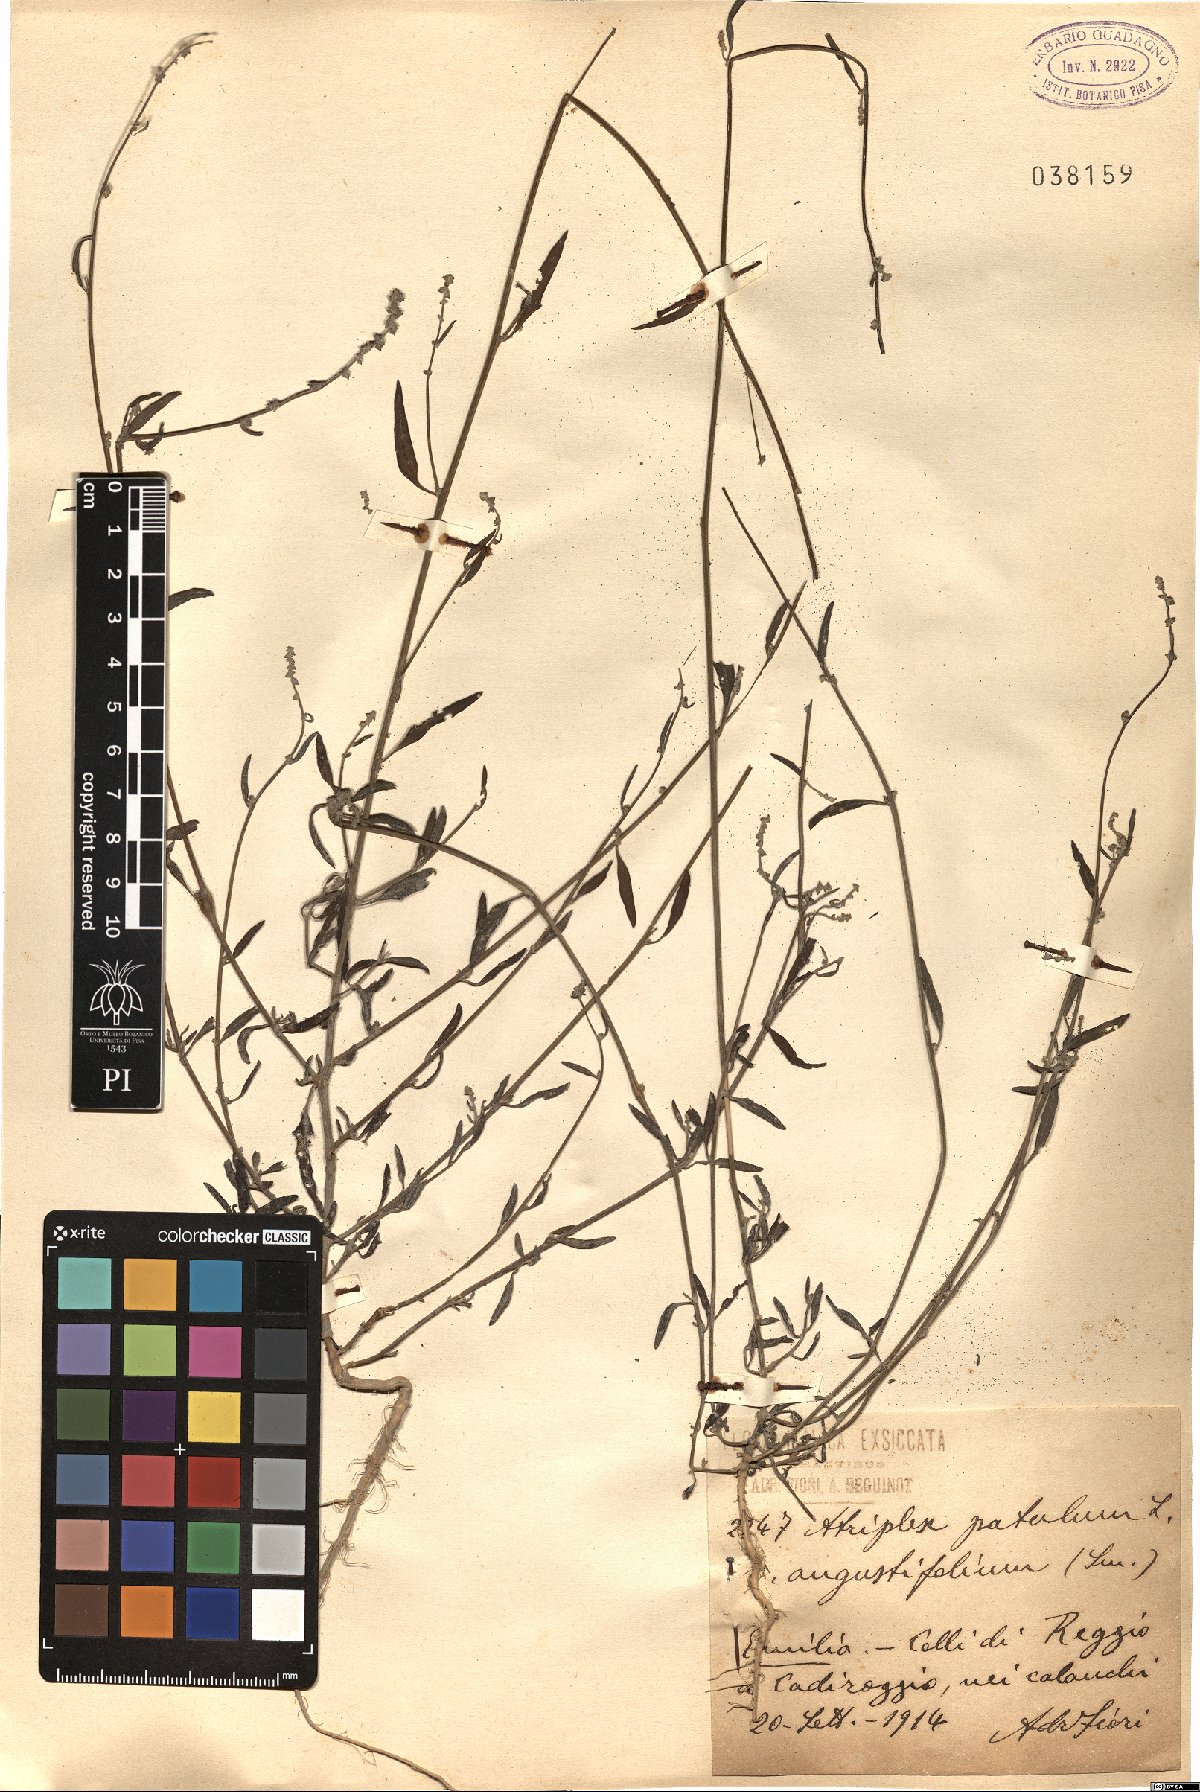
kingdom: Plantae
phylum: Tracheophyta
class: Magnoliopsida
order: Caryophyllales
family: Amaranthaceae
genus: Atriplex
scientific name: Atriplex patula
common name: Common orache
